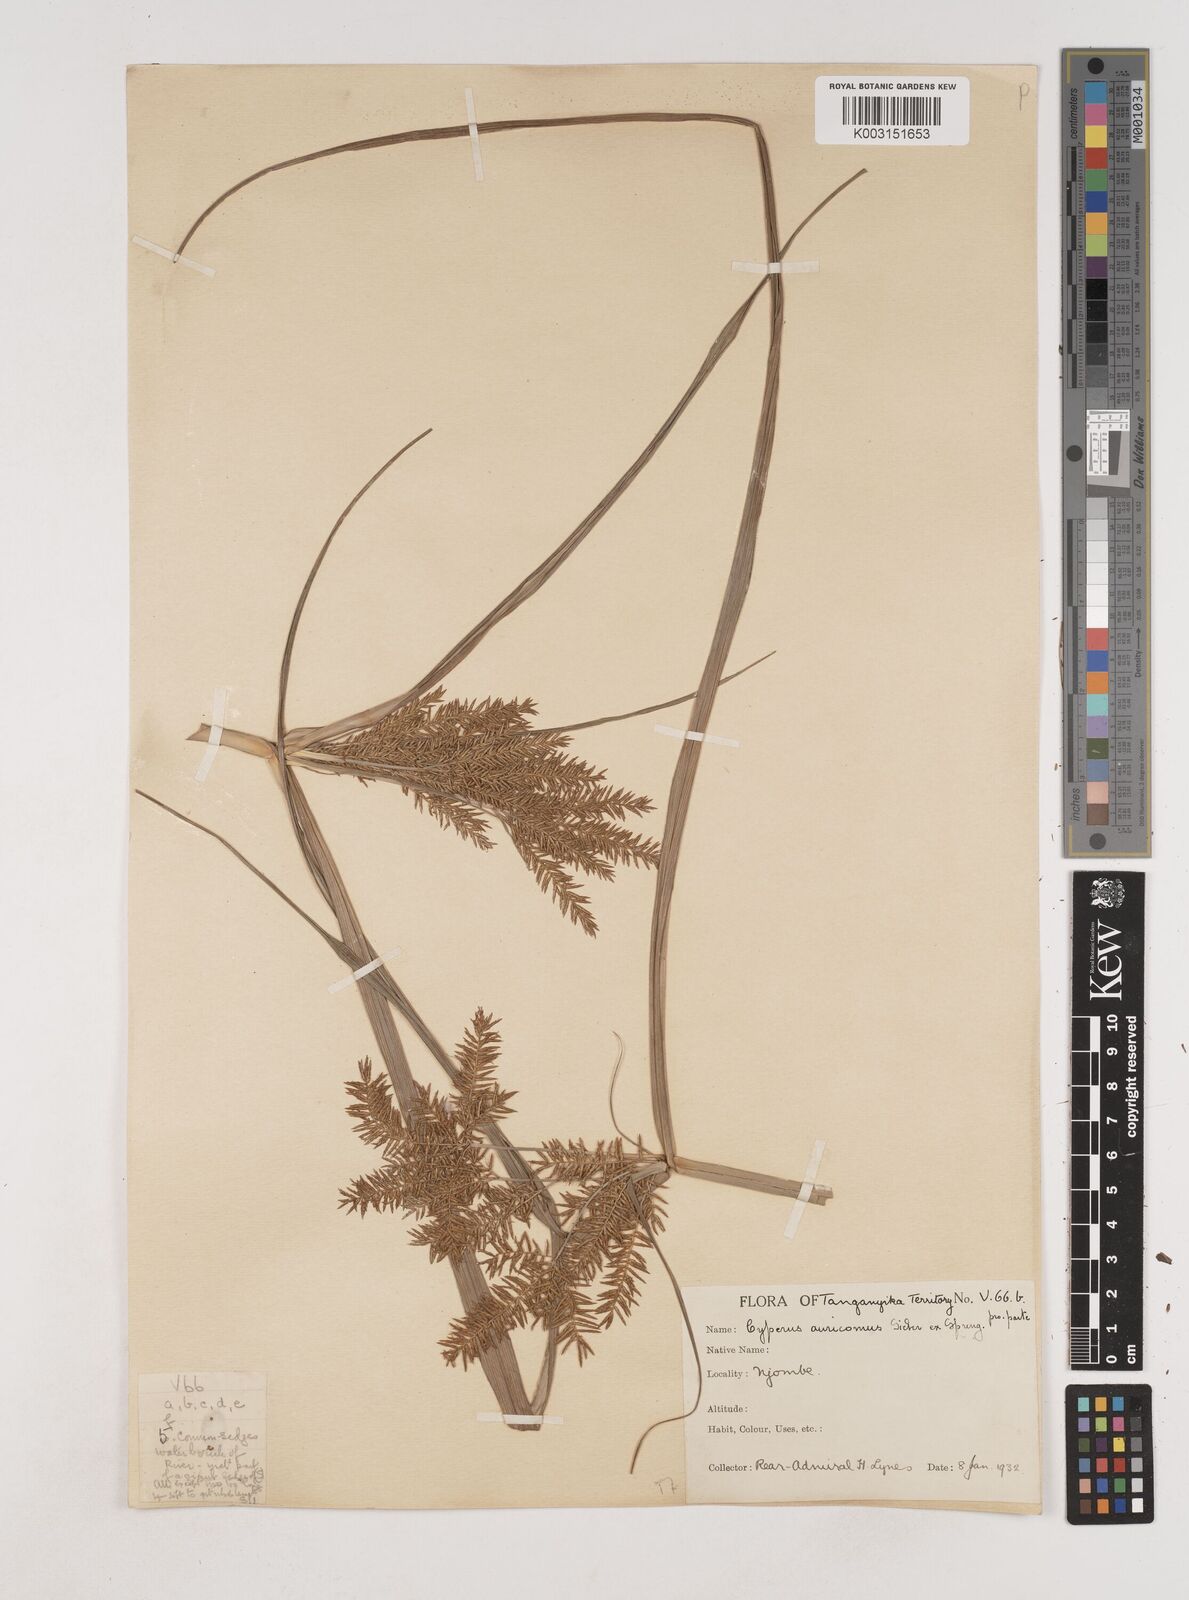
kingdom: Plantae
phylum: Tracheophyta
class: Liliopsida
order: Poales
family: Cyperaceae
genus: Cyperus
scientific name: Cyperus digitatus
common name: Finger flatsedge
